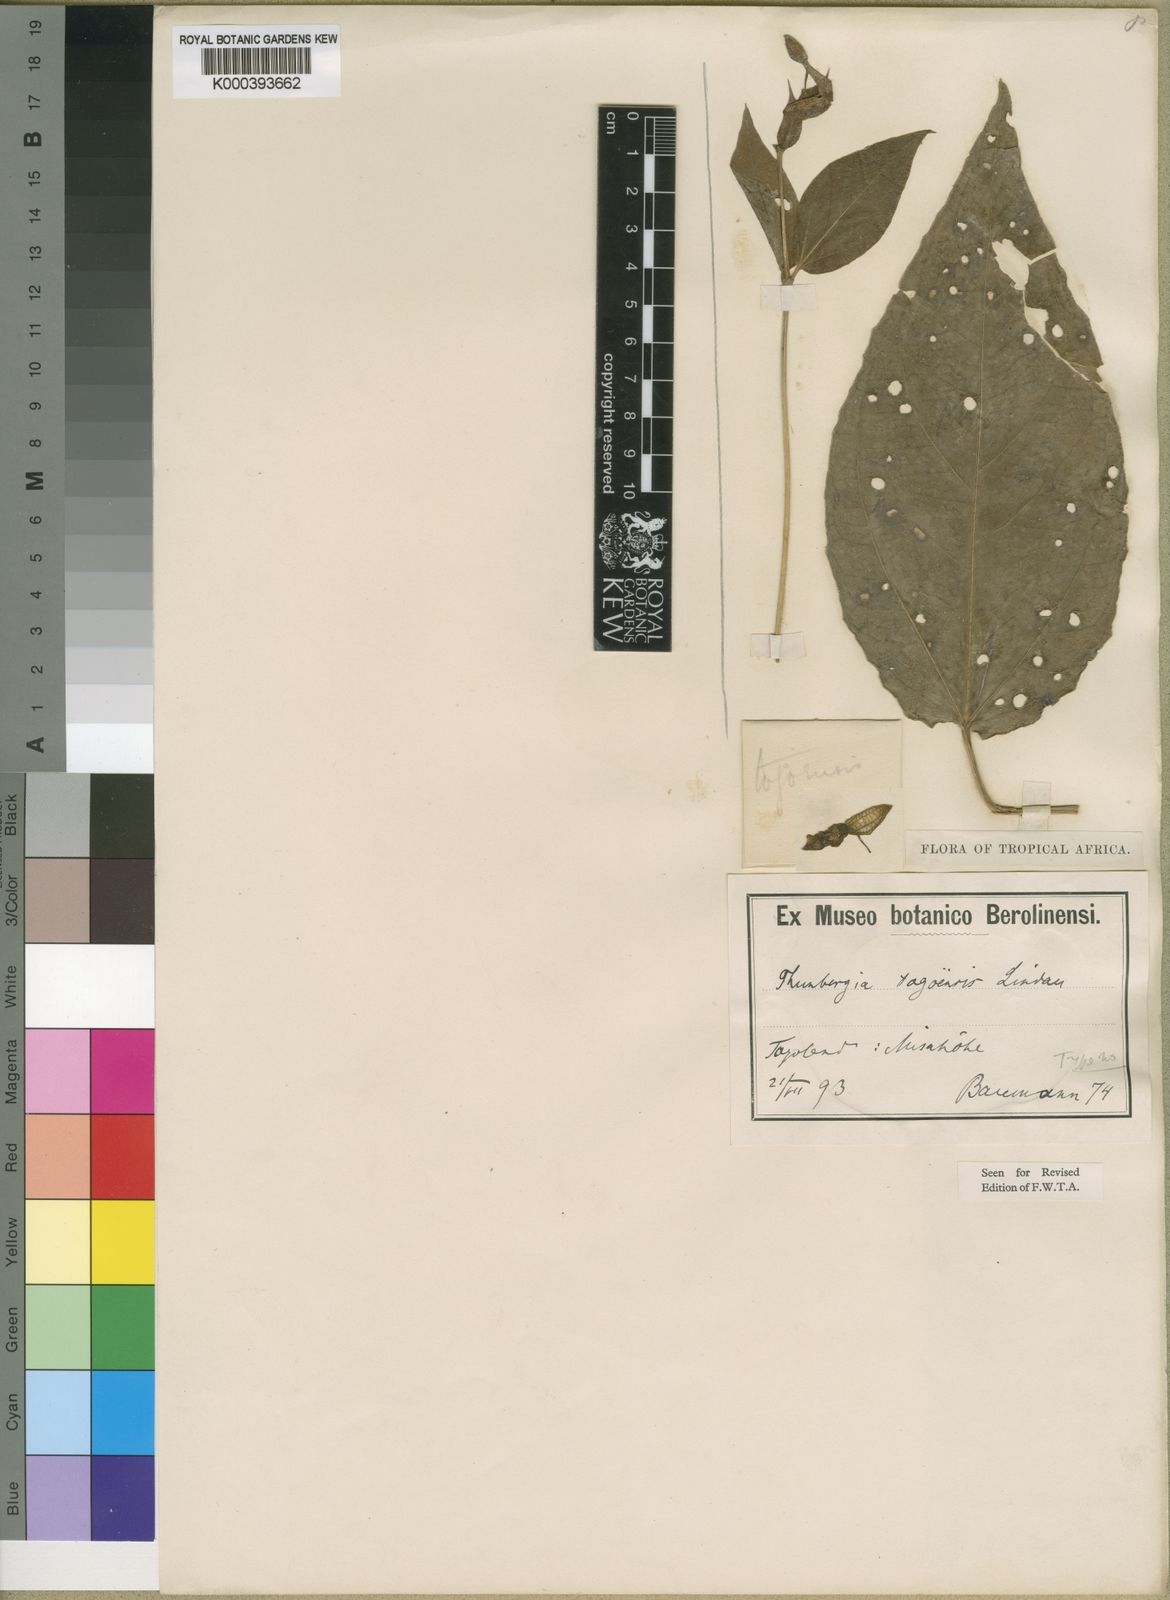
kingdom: Plantae
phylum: Tracheophyta
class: Magnoliopsida
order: Lamiales
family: Acanthaceae
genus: Thunbergia
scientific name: Thunbergia togoensis
